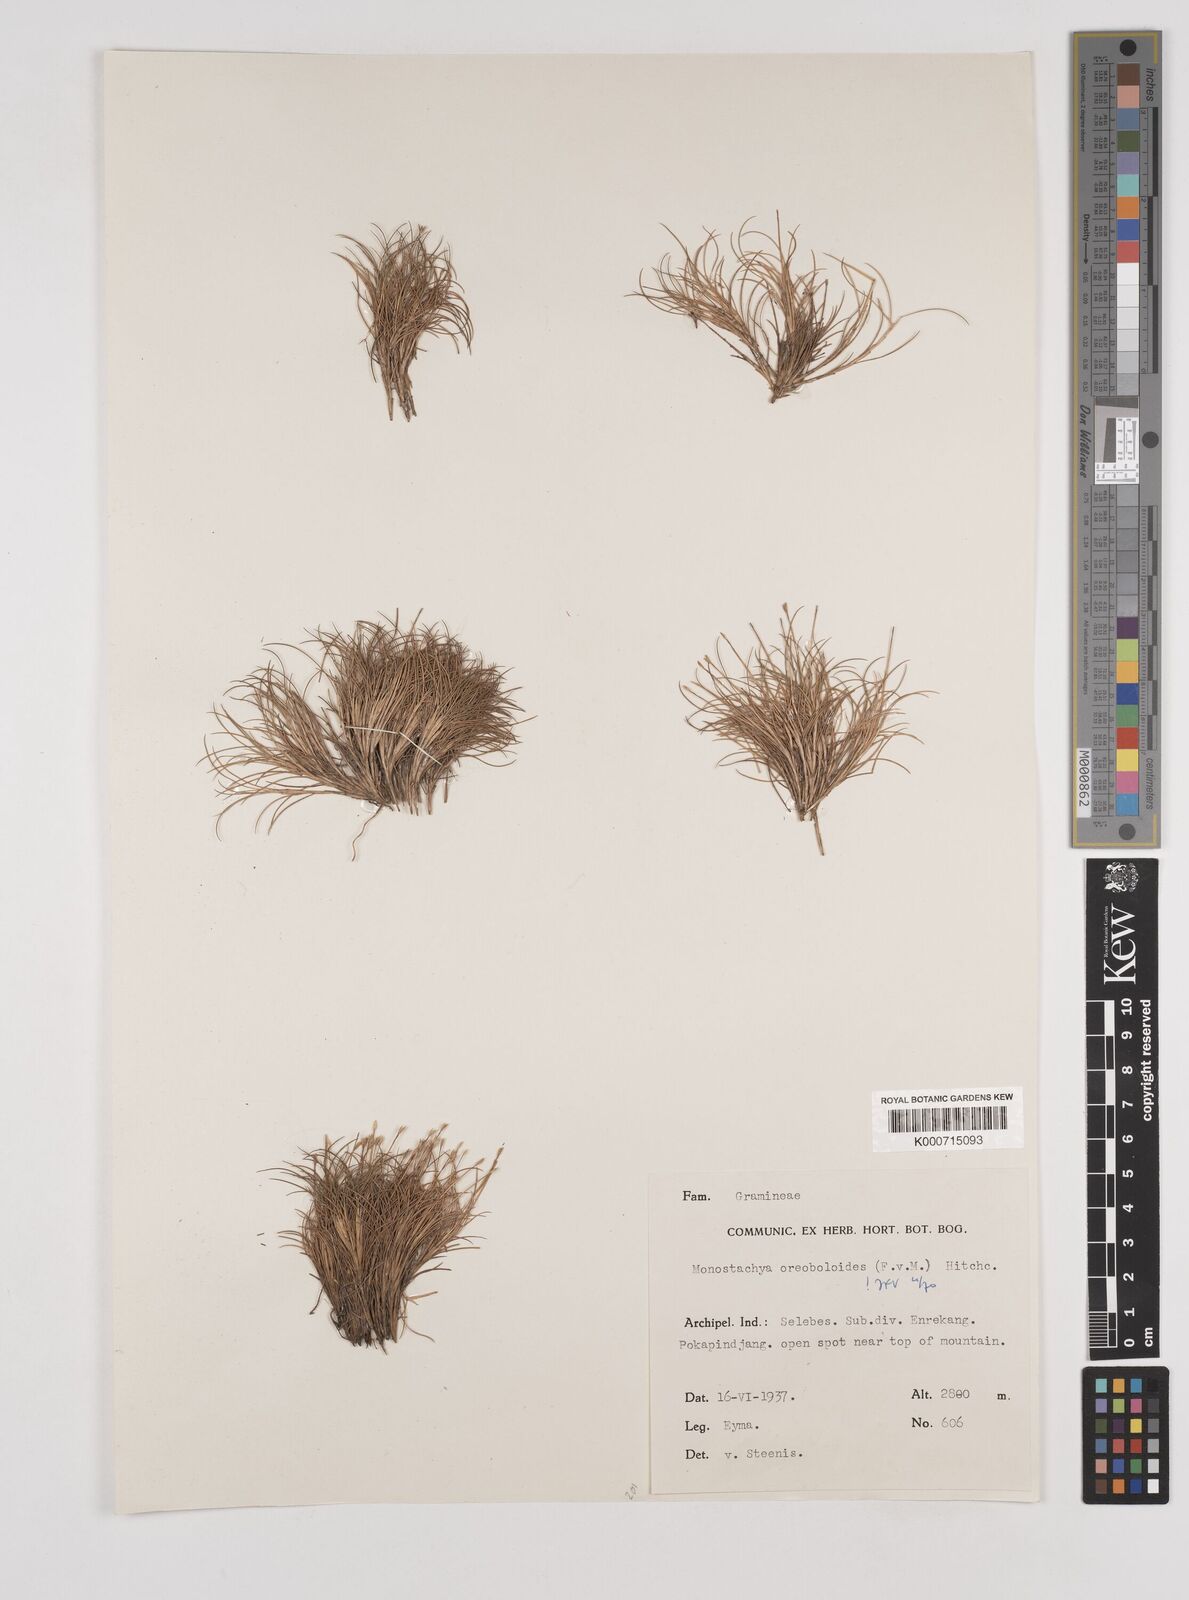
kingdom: Plantae
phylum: Tracheophyta
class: Liliopsida
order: Poales
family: Poaceae
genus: Rytidosperma
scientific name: Rytidosperma oreoboloides
